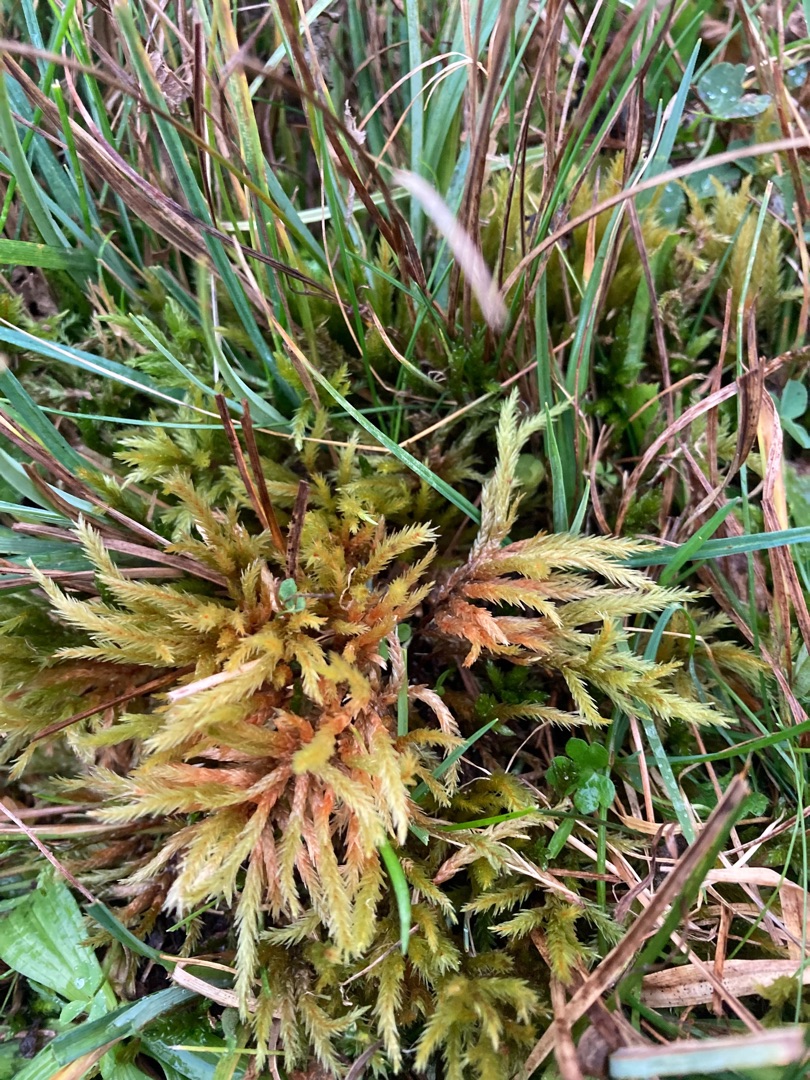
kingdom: Plantae
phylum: Bryophyta
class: Bryopsida
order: Hypnales
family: Climaciaceae
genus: Climacium
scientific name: Climacium dendroides
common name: Stor engkost
